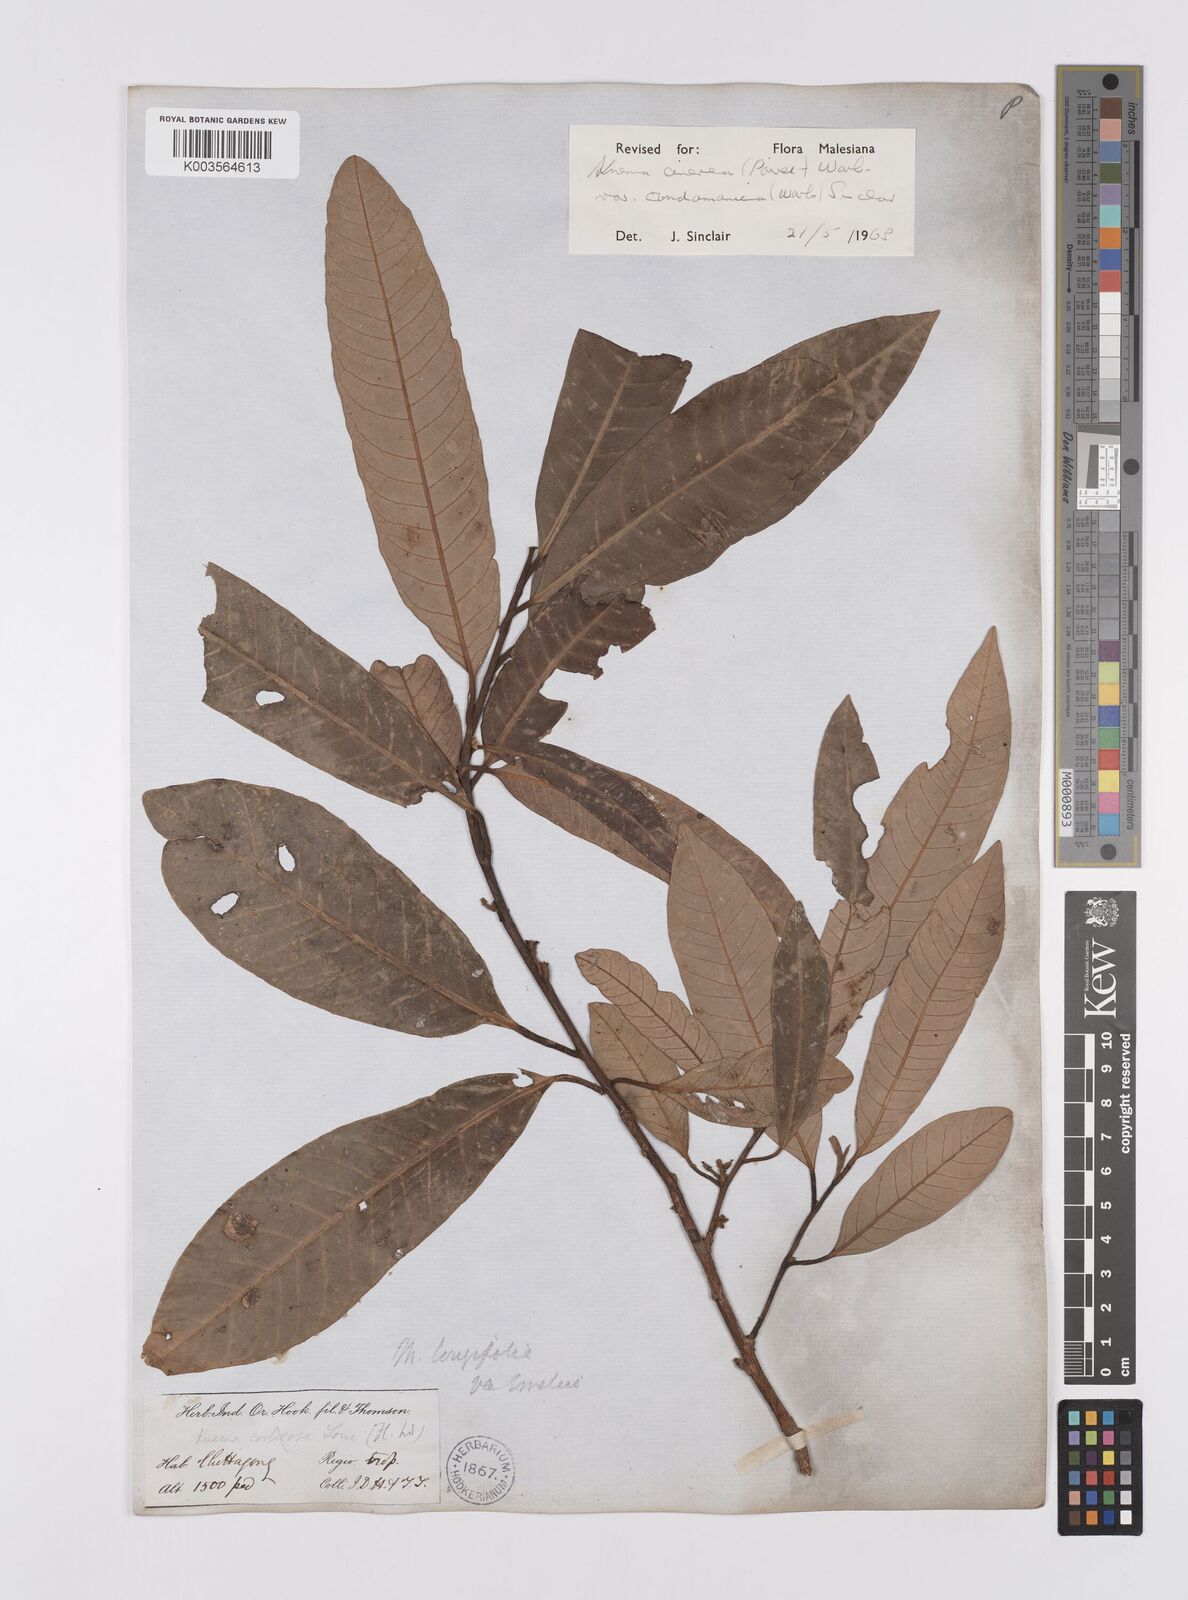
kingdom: Plantae
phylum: Tracheophyta
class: Magnoliopsida
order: Magnoliales
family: Myristicaceae
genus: Knema
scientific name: Knema
